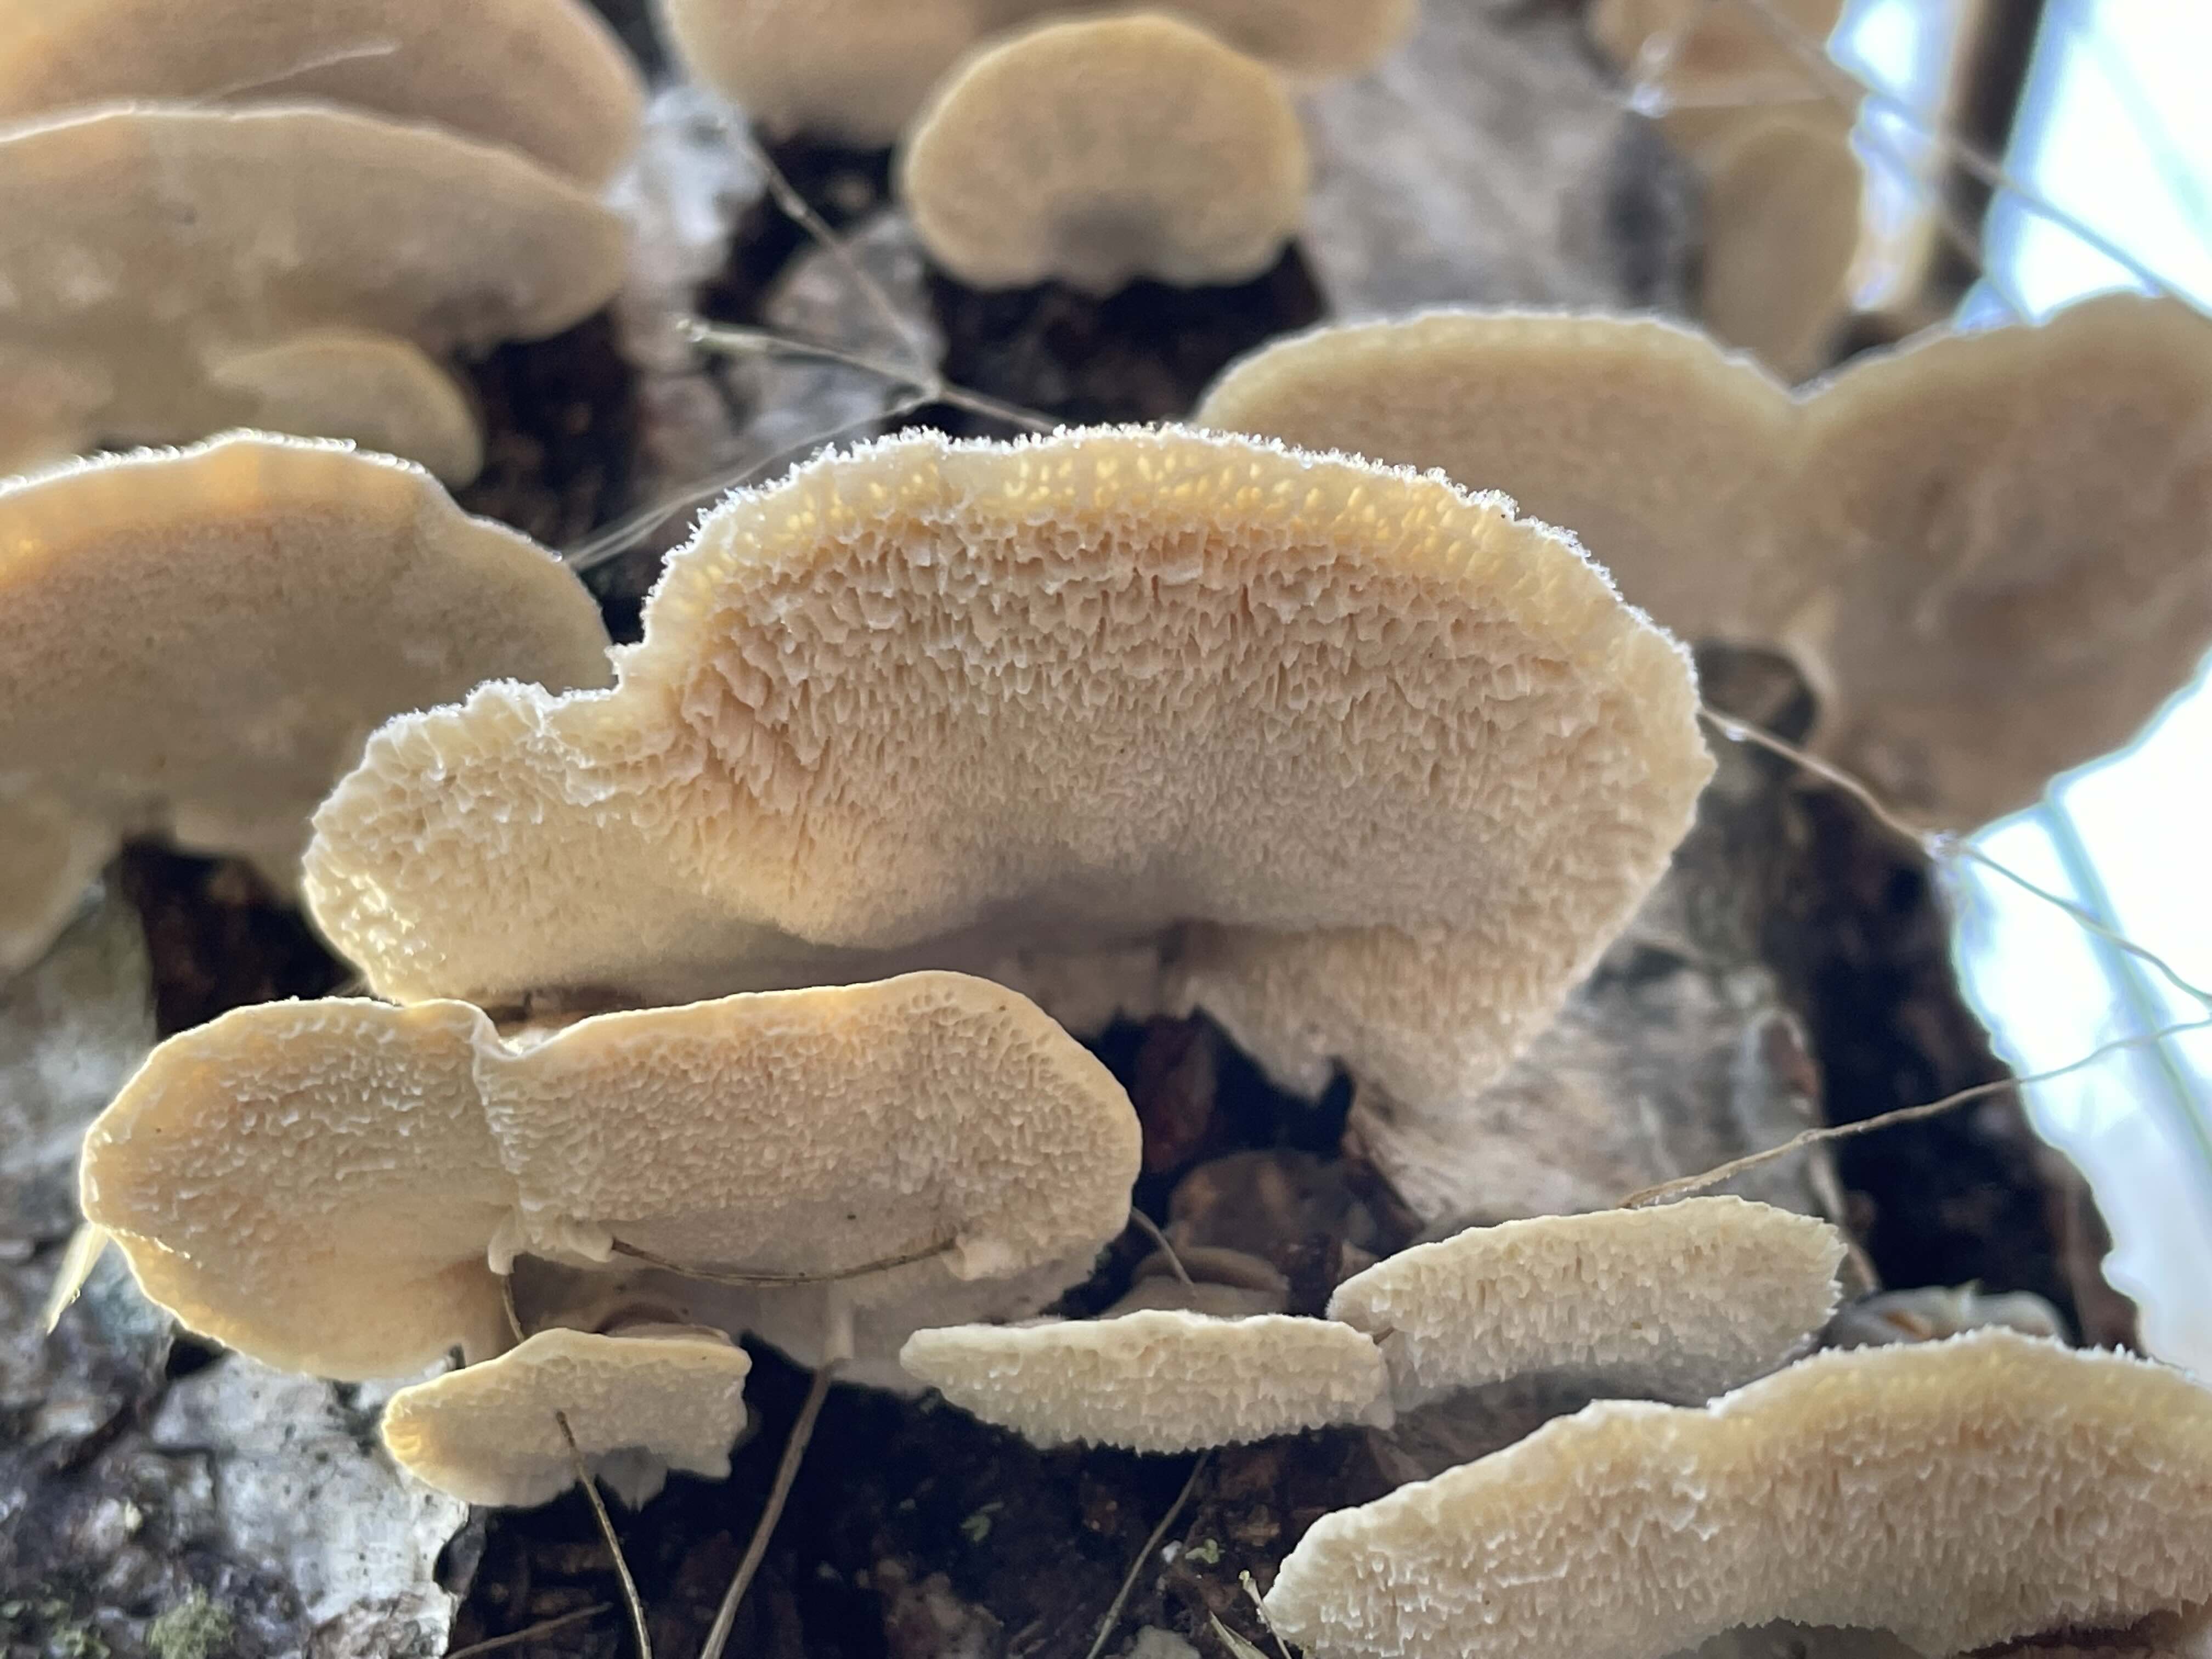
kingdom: Fungi
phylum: Basidiomycota
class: Agaricomycetes
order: Polyporales
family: Polyporaceae
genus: Trametes
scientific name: Trametes versicolor
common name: broget læderporesvamp
